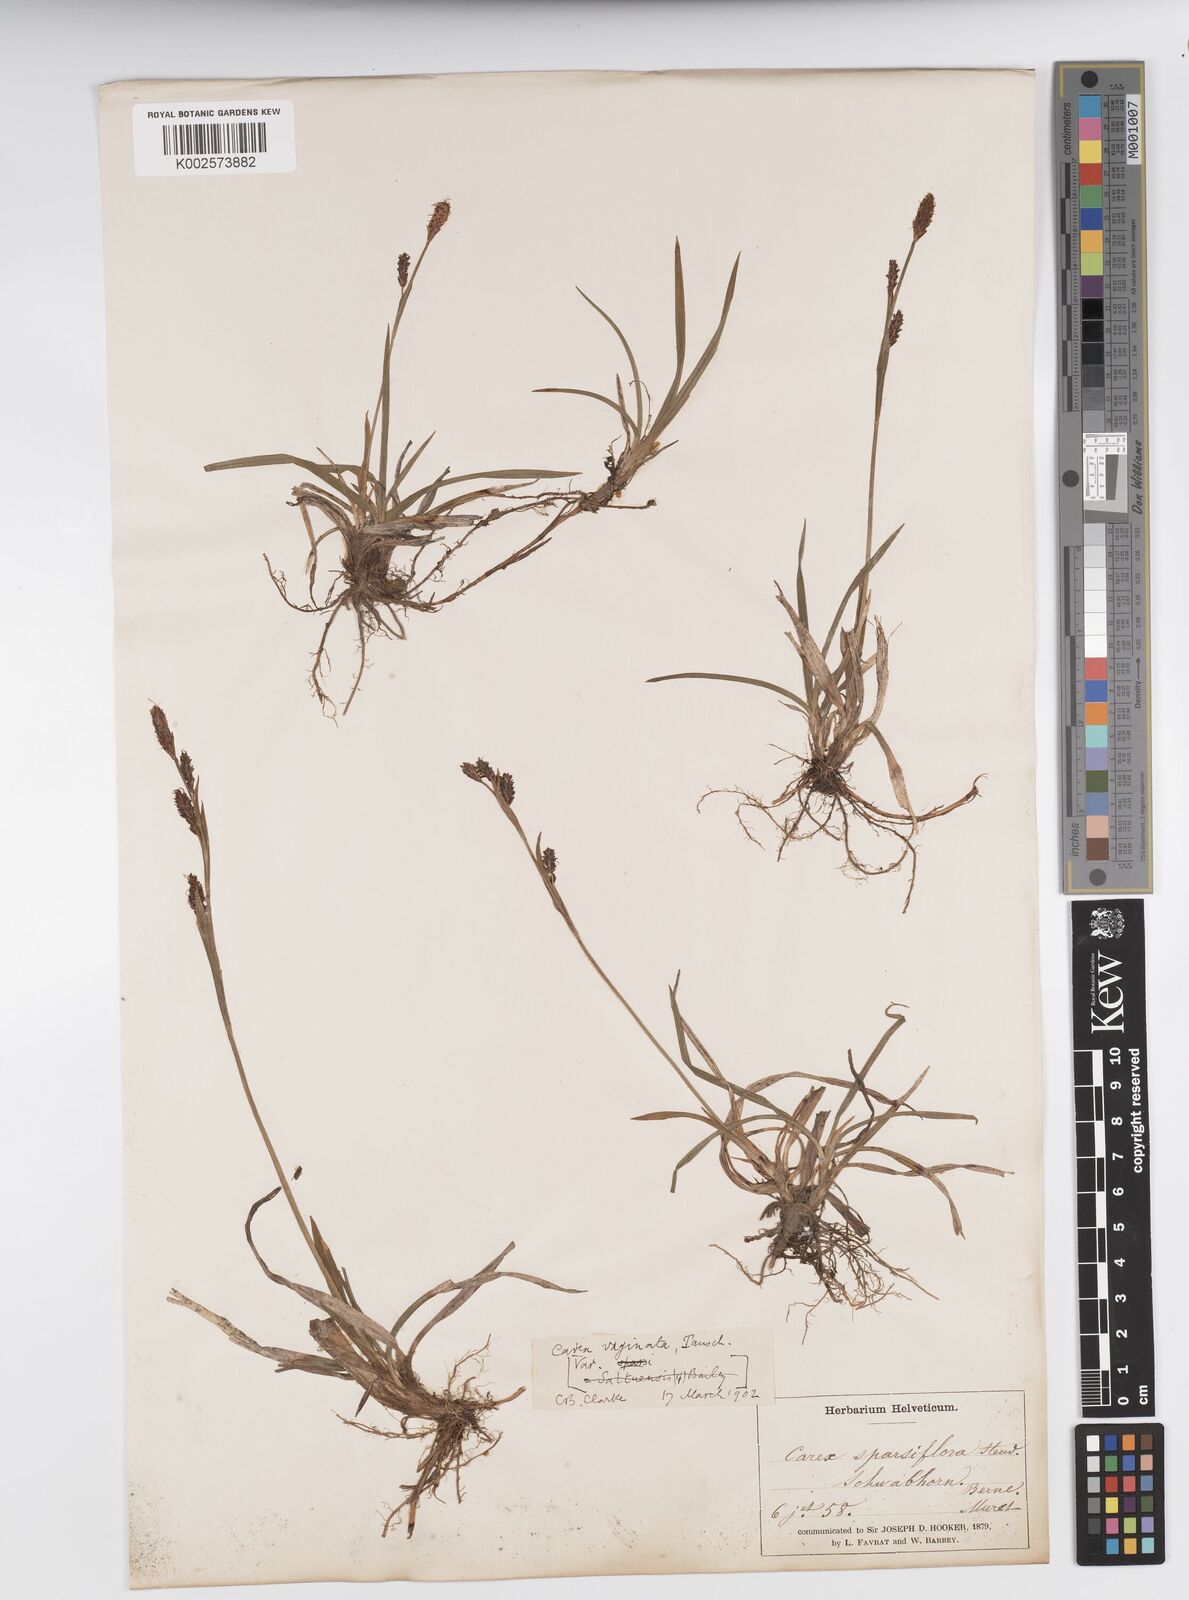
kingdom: Plantae
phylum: Tracheophyta
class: Liliopsida
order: Poales
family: Cyperaceae
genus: Carex
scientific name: Carex vaginata
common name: Sheathed sedge
